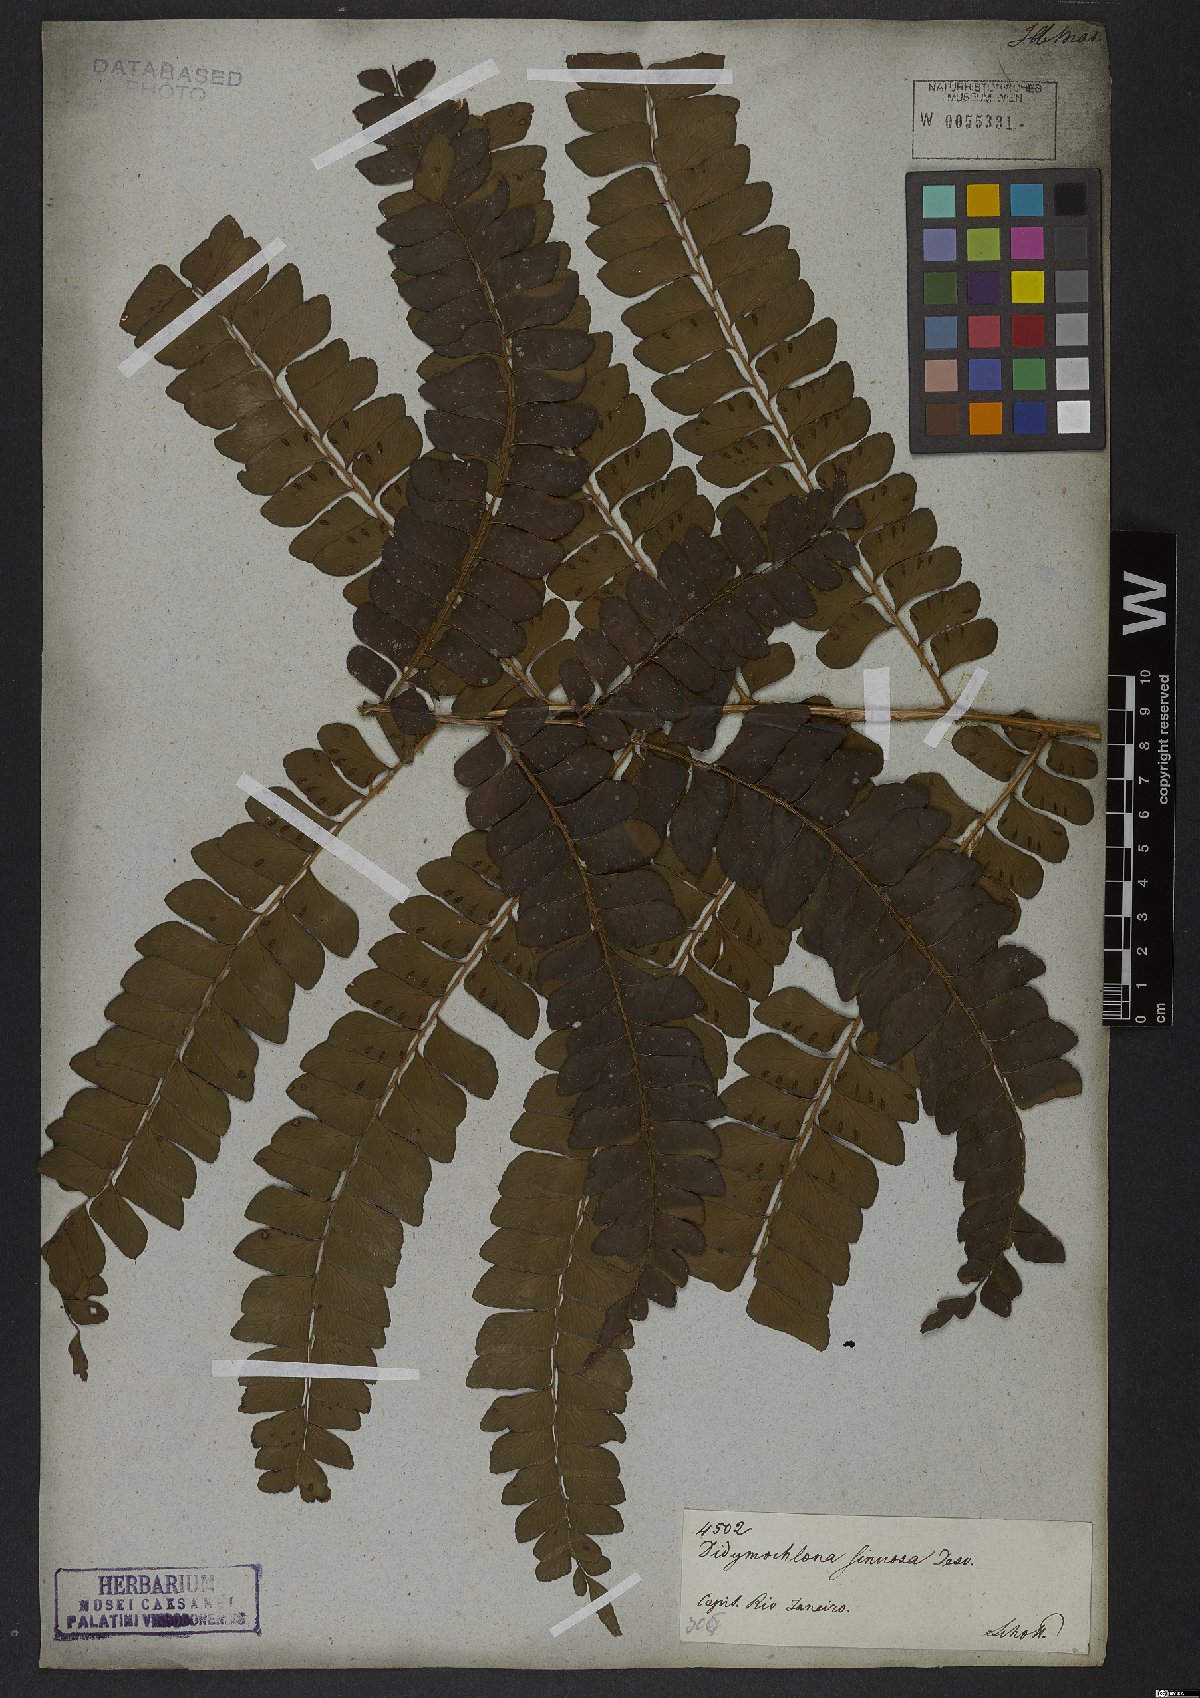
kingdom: Plantae
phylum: Tracheophyta
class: Polypodiopsida
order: Polypodiales
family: Didymochlaenaceae
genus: Didymochlaena
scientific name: Didymochlaena truncatula
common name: Mahogany fern
